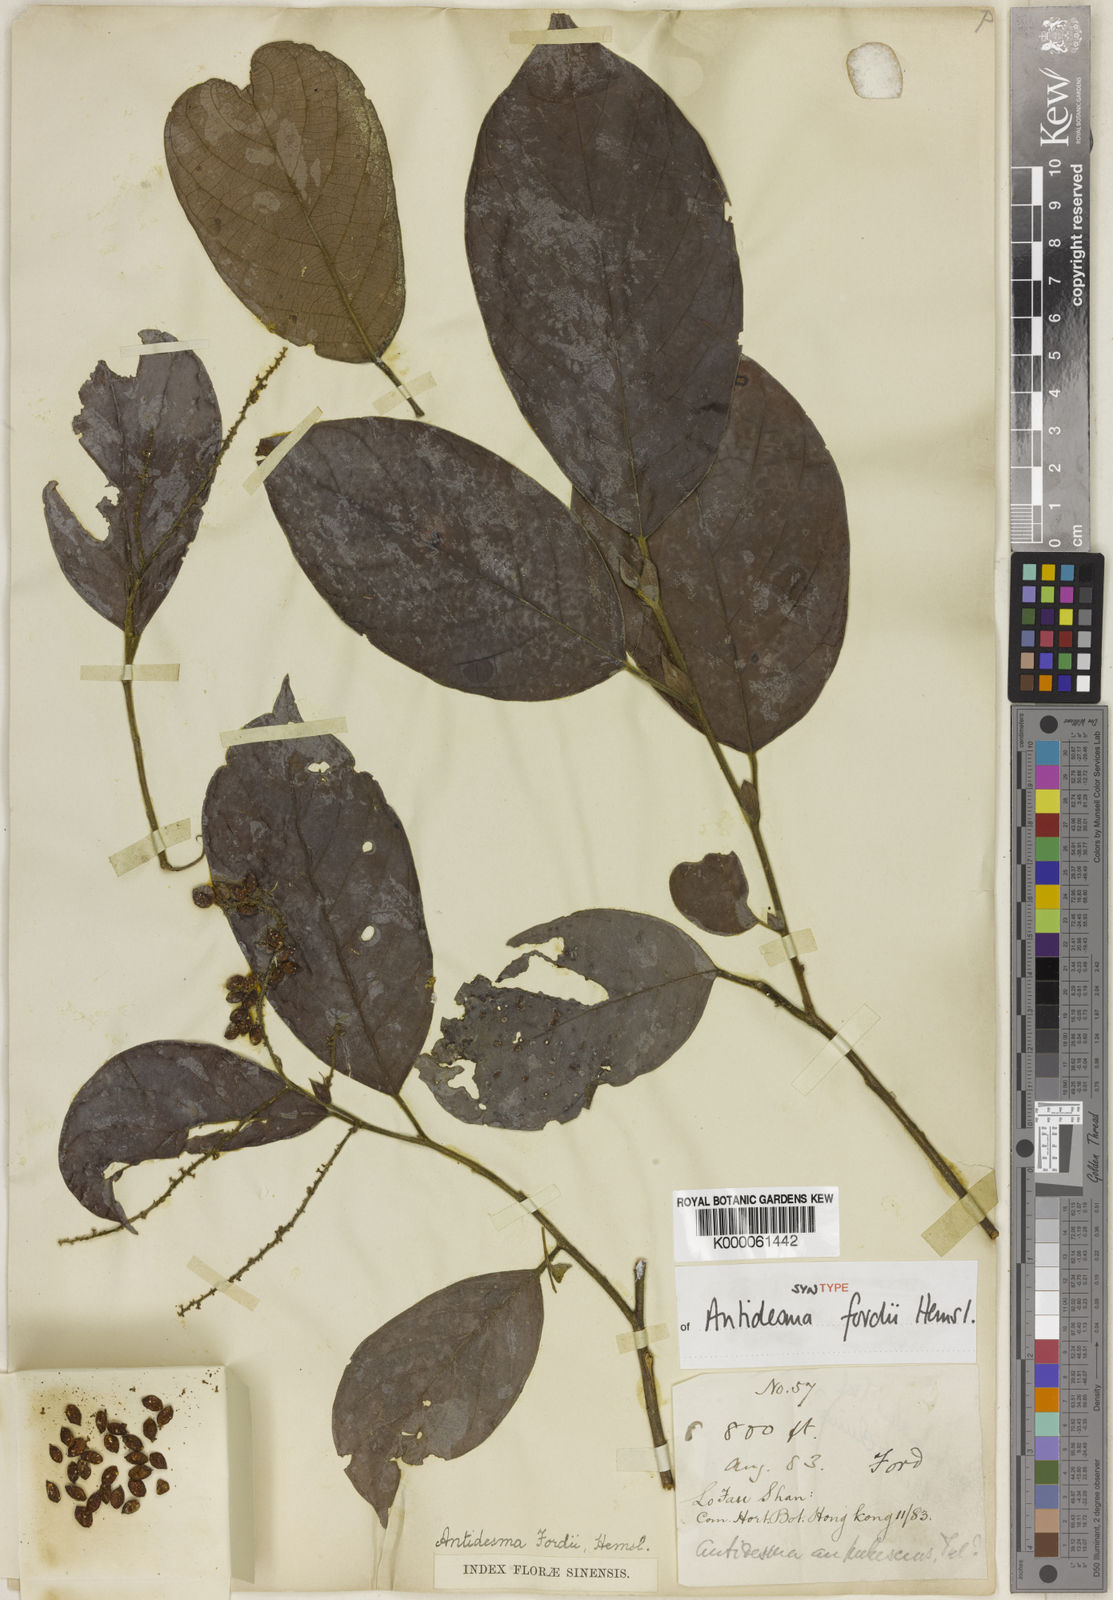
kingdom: Plantae
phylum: Tracheophyta
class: Magnoliopsida
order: Malpighiales
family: Phyllanthaceae
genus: Antidesma
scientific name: Antidesma fordii
